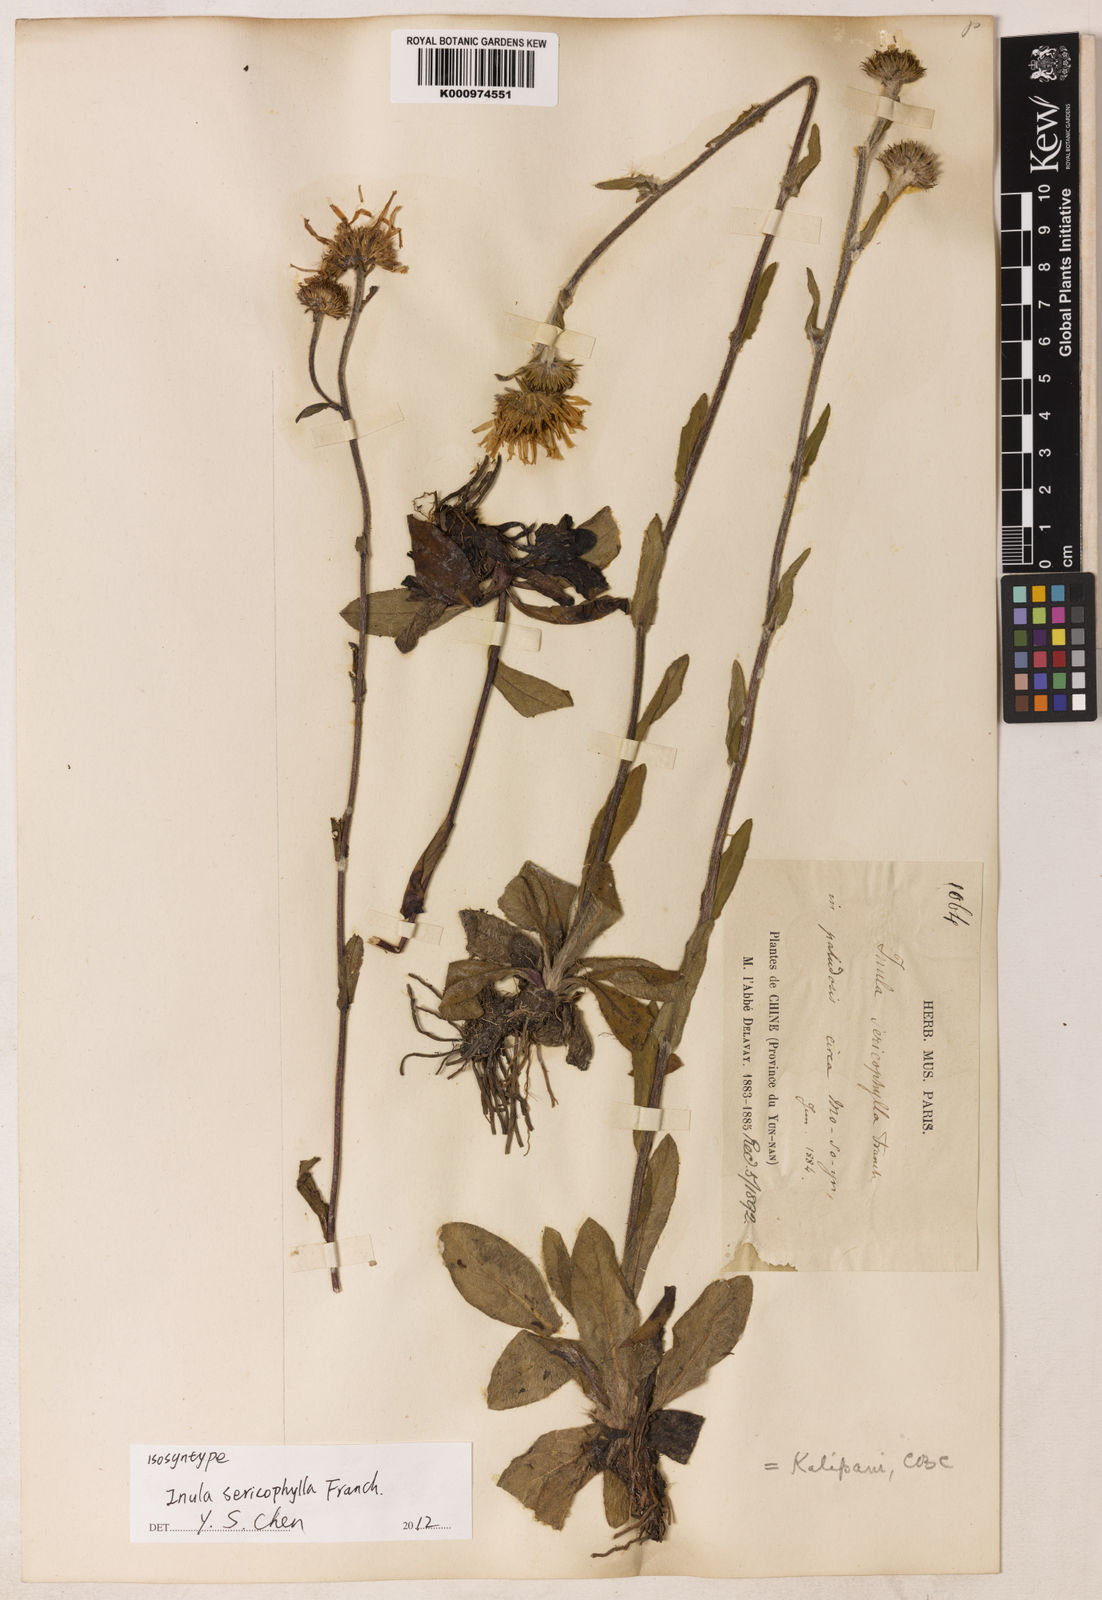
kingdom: Plantae
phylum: Tracheophyta
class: Magnoliopsida
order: Asterales
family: Asteraceae
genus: Inula
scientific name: Inula
